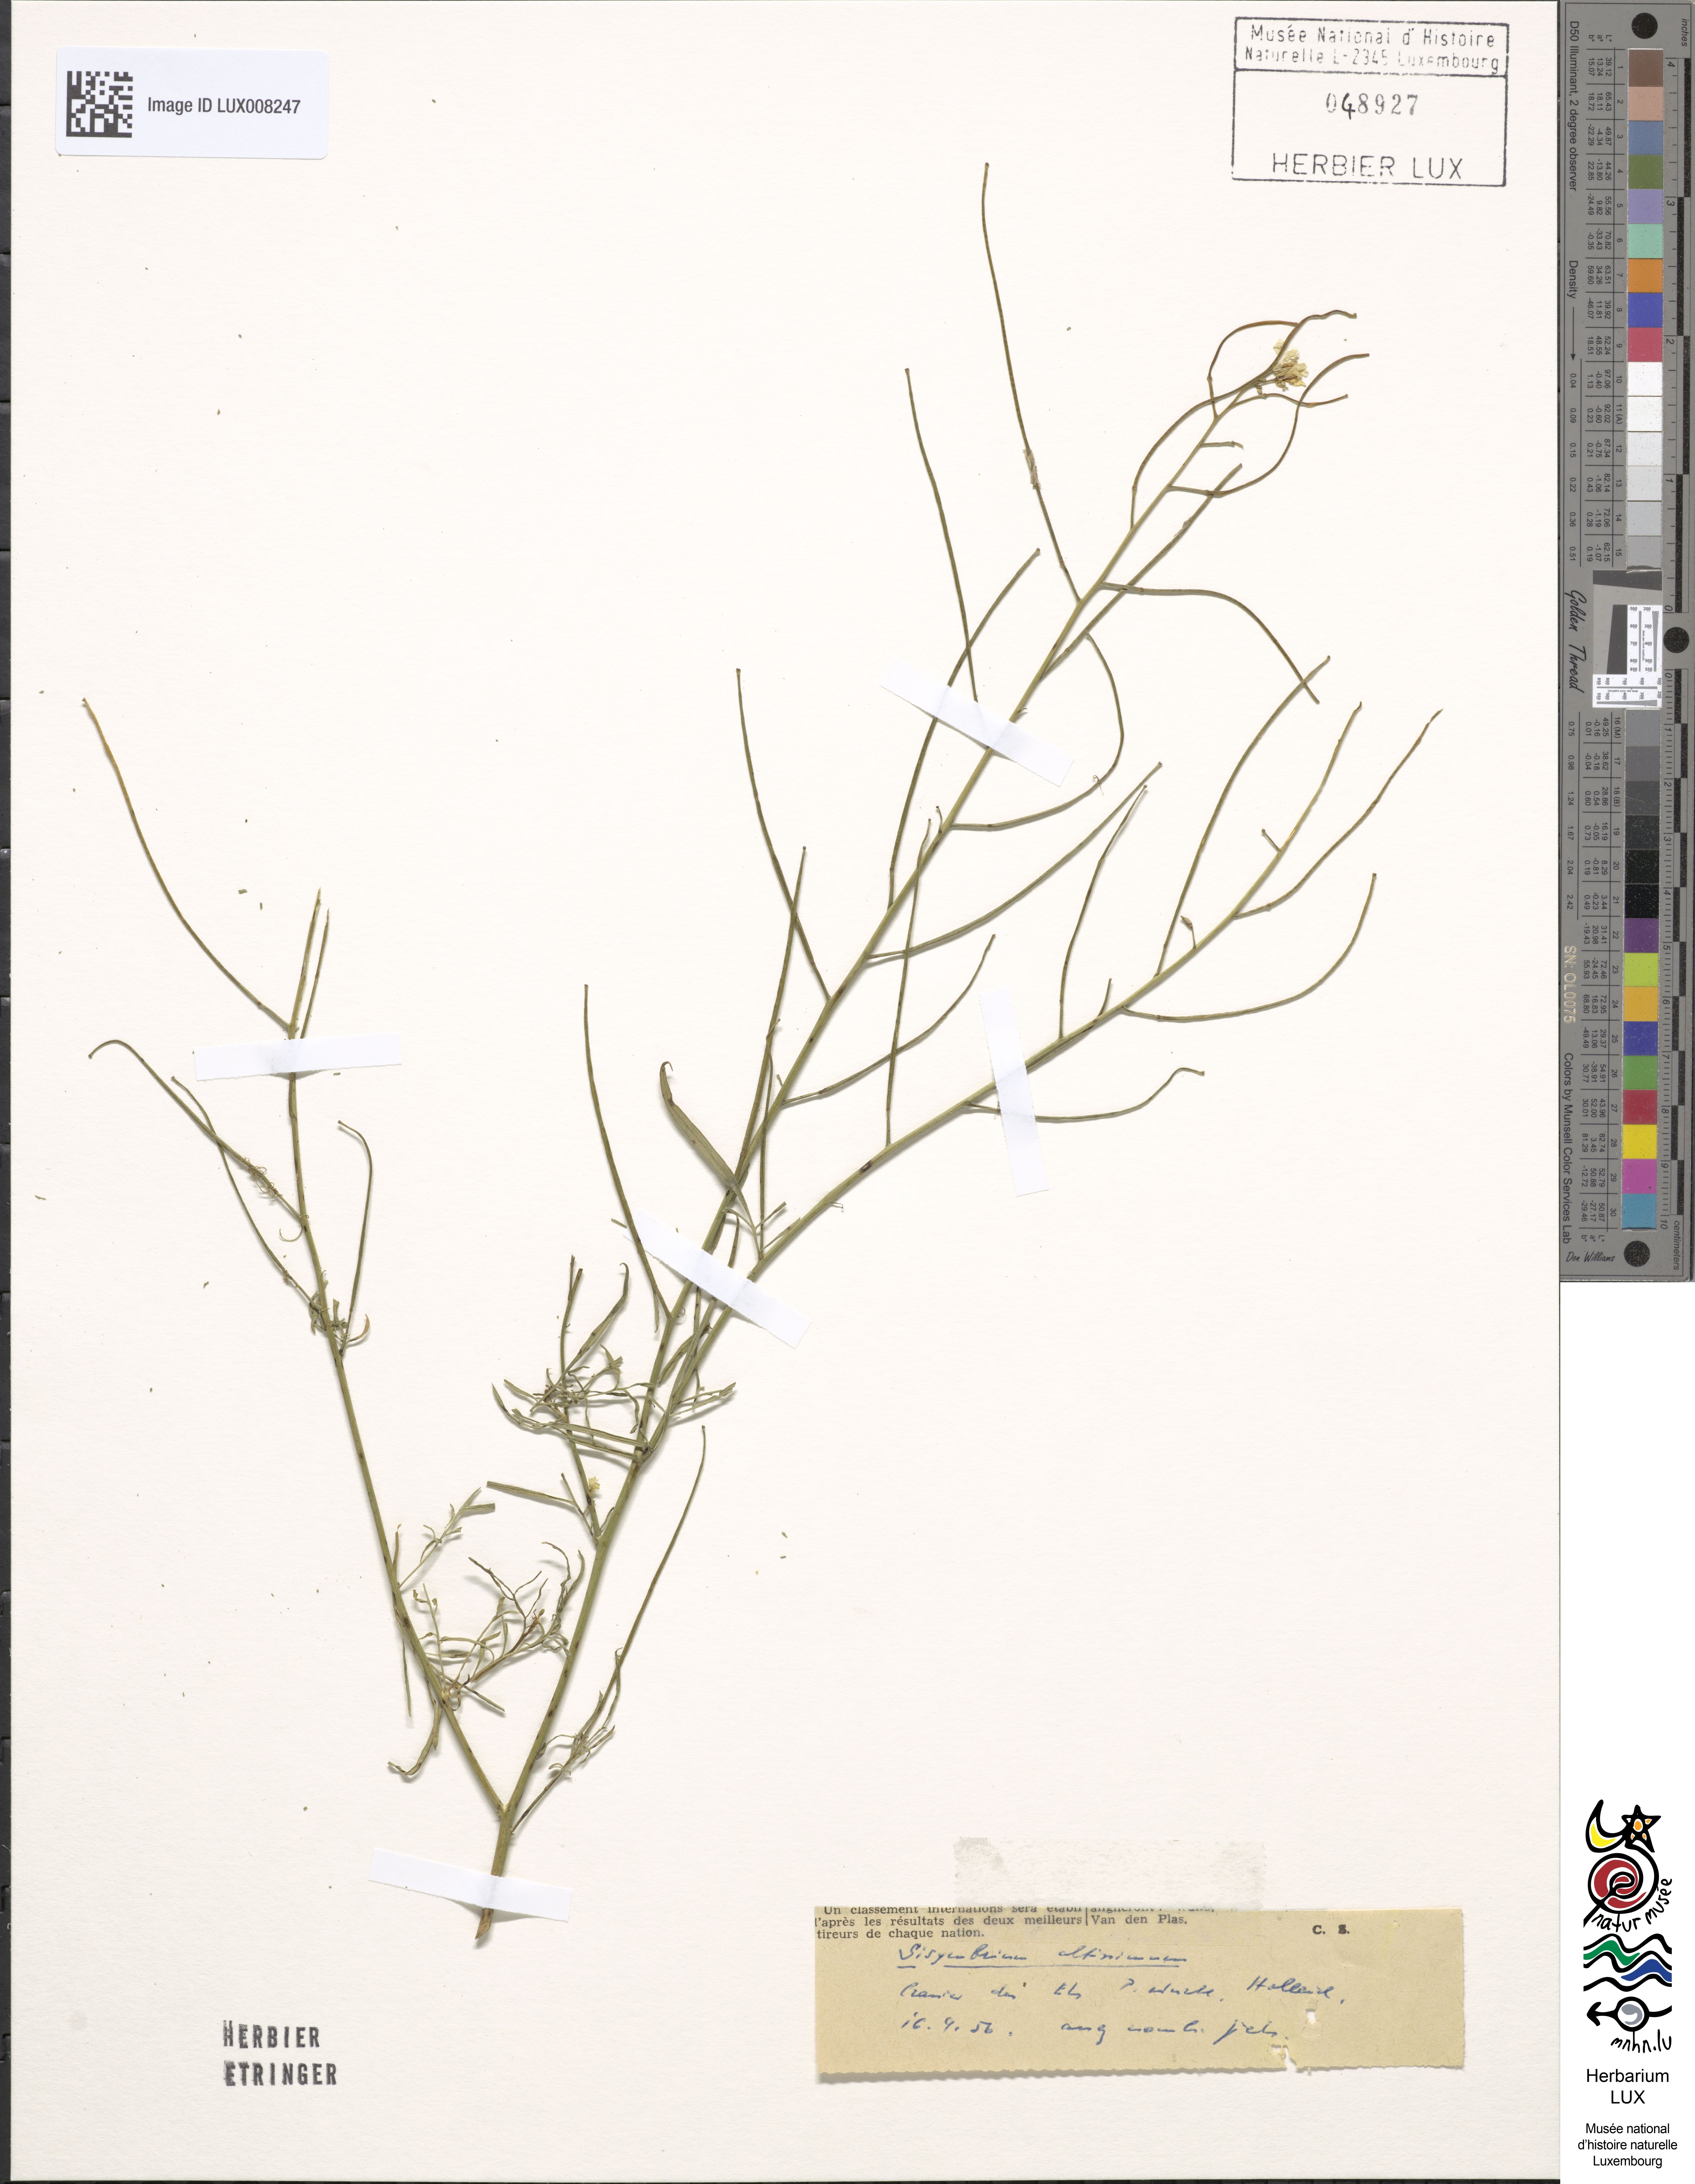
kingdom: Plantae
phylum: Tracheophyta
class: Magnoliopsida
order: Brassicales
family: Brassicaceae
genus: Sisymbrium
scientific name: Sisymbrium altissimum
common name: Tall rocket
